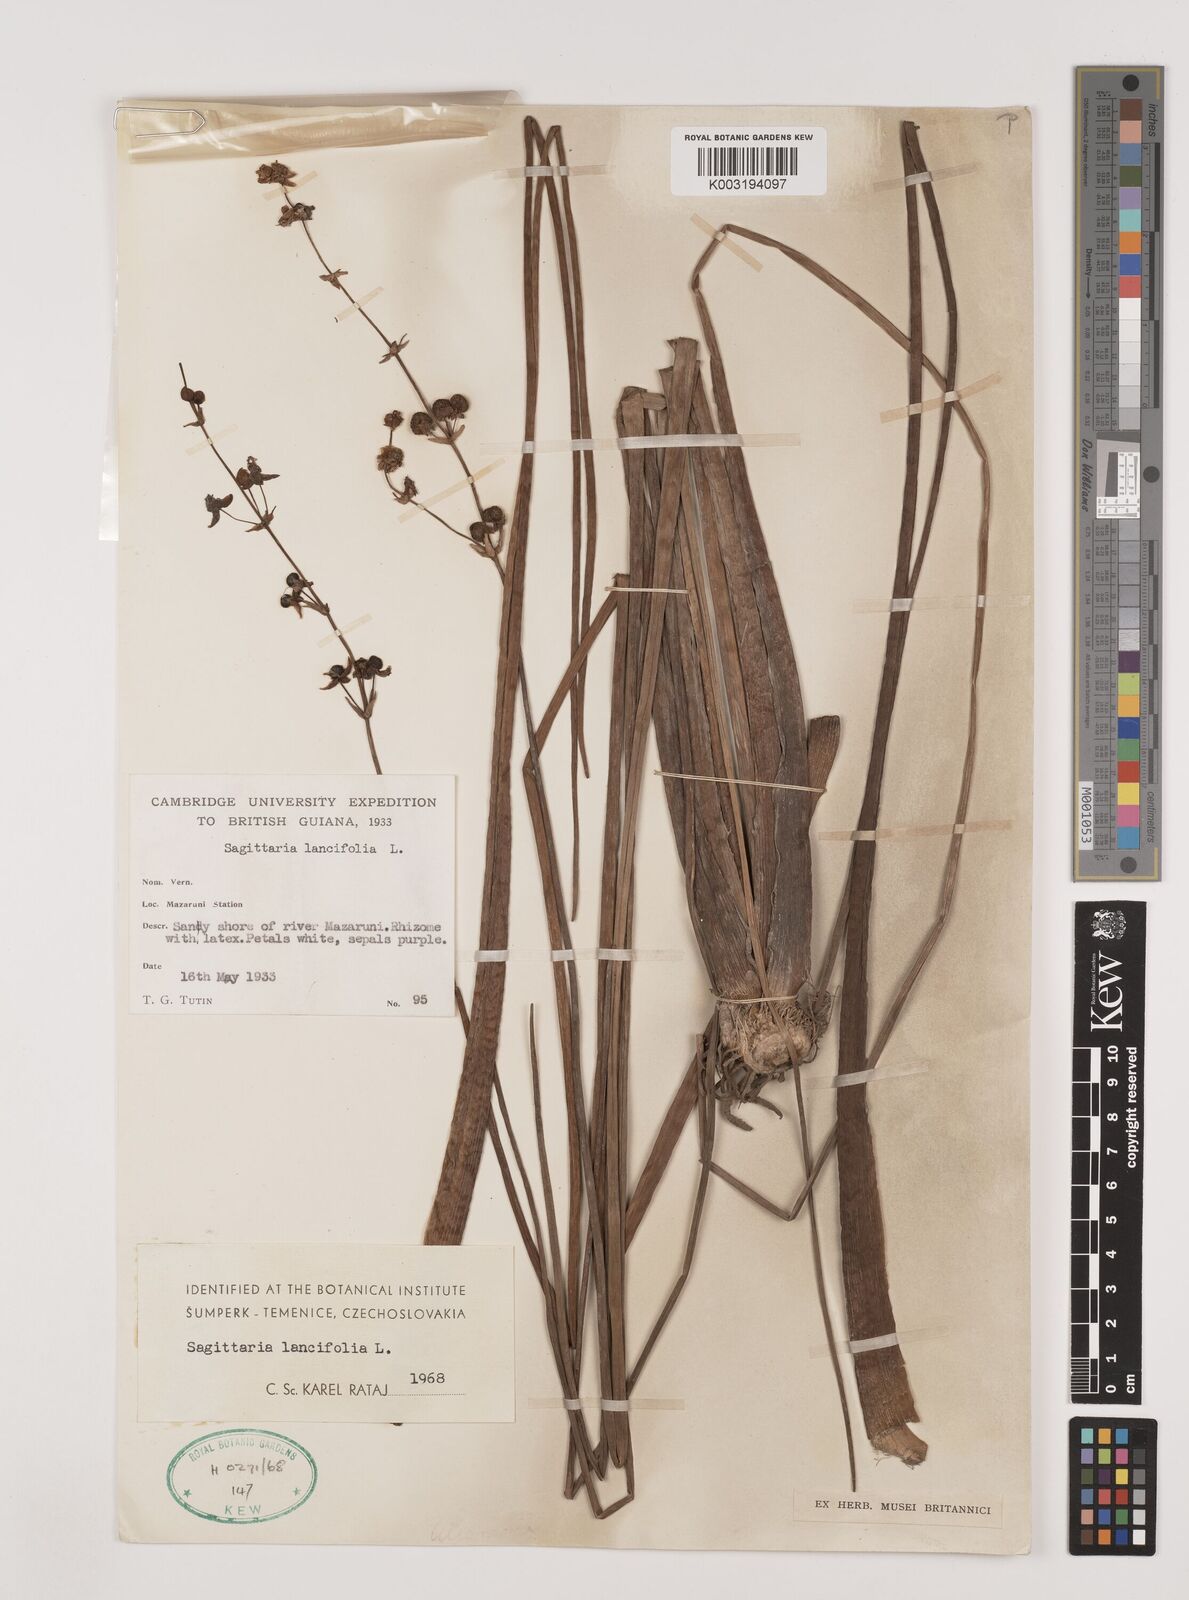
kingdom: Plantae
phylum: Tracheophyta
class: Liliopsida
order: Alismatales
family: Alismataceae
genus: Sagittaria
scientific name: Sagittaria lancifolia
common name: Lance-leaf arrowhead
